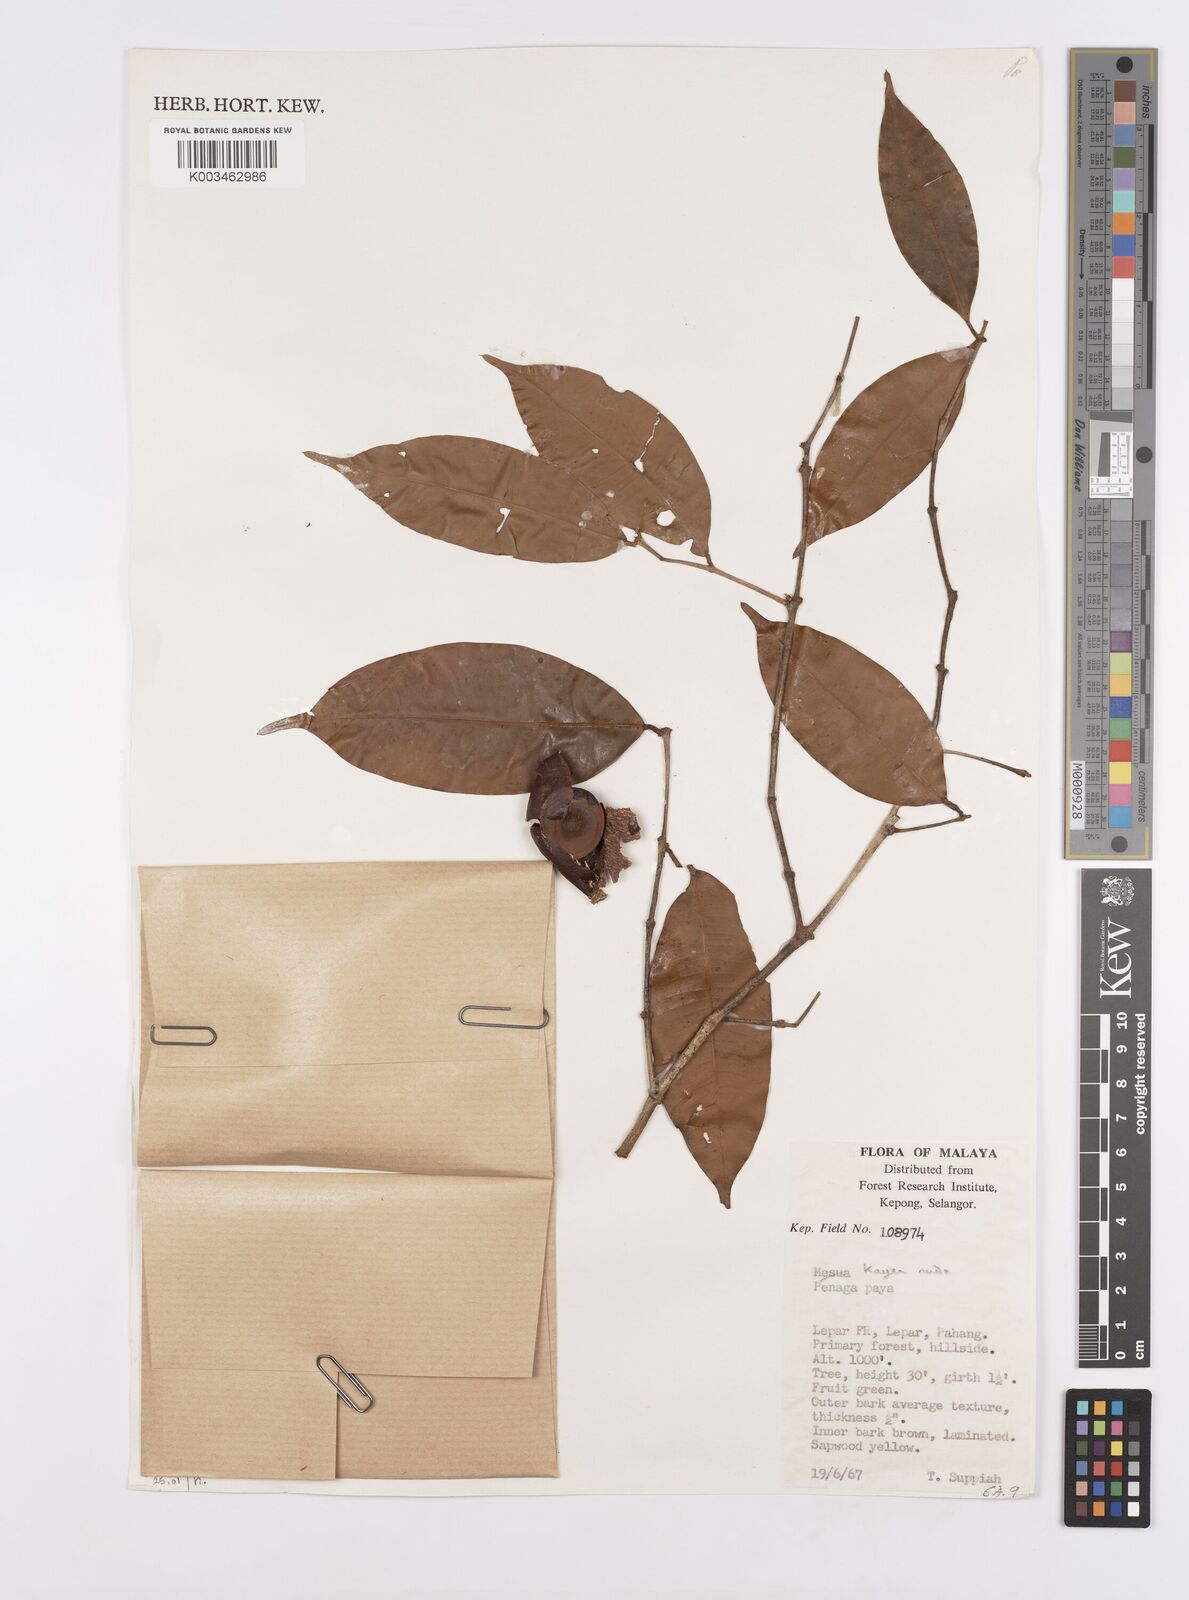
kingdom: Plantae
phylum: Tracheophyta
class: Magnoliopsida
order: Malpighiales
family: Calophyllaceae
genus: Kayea
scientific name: Kayea
